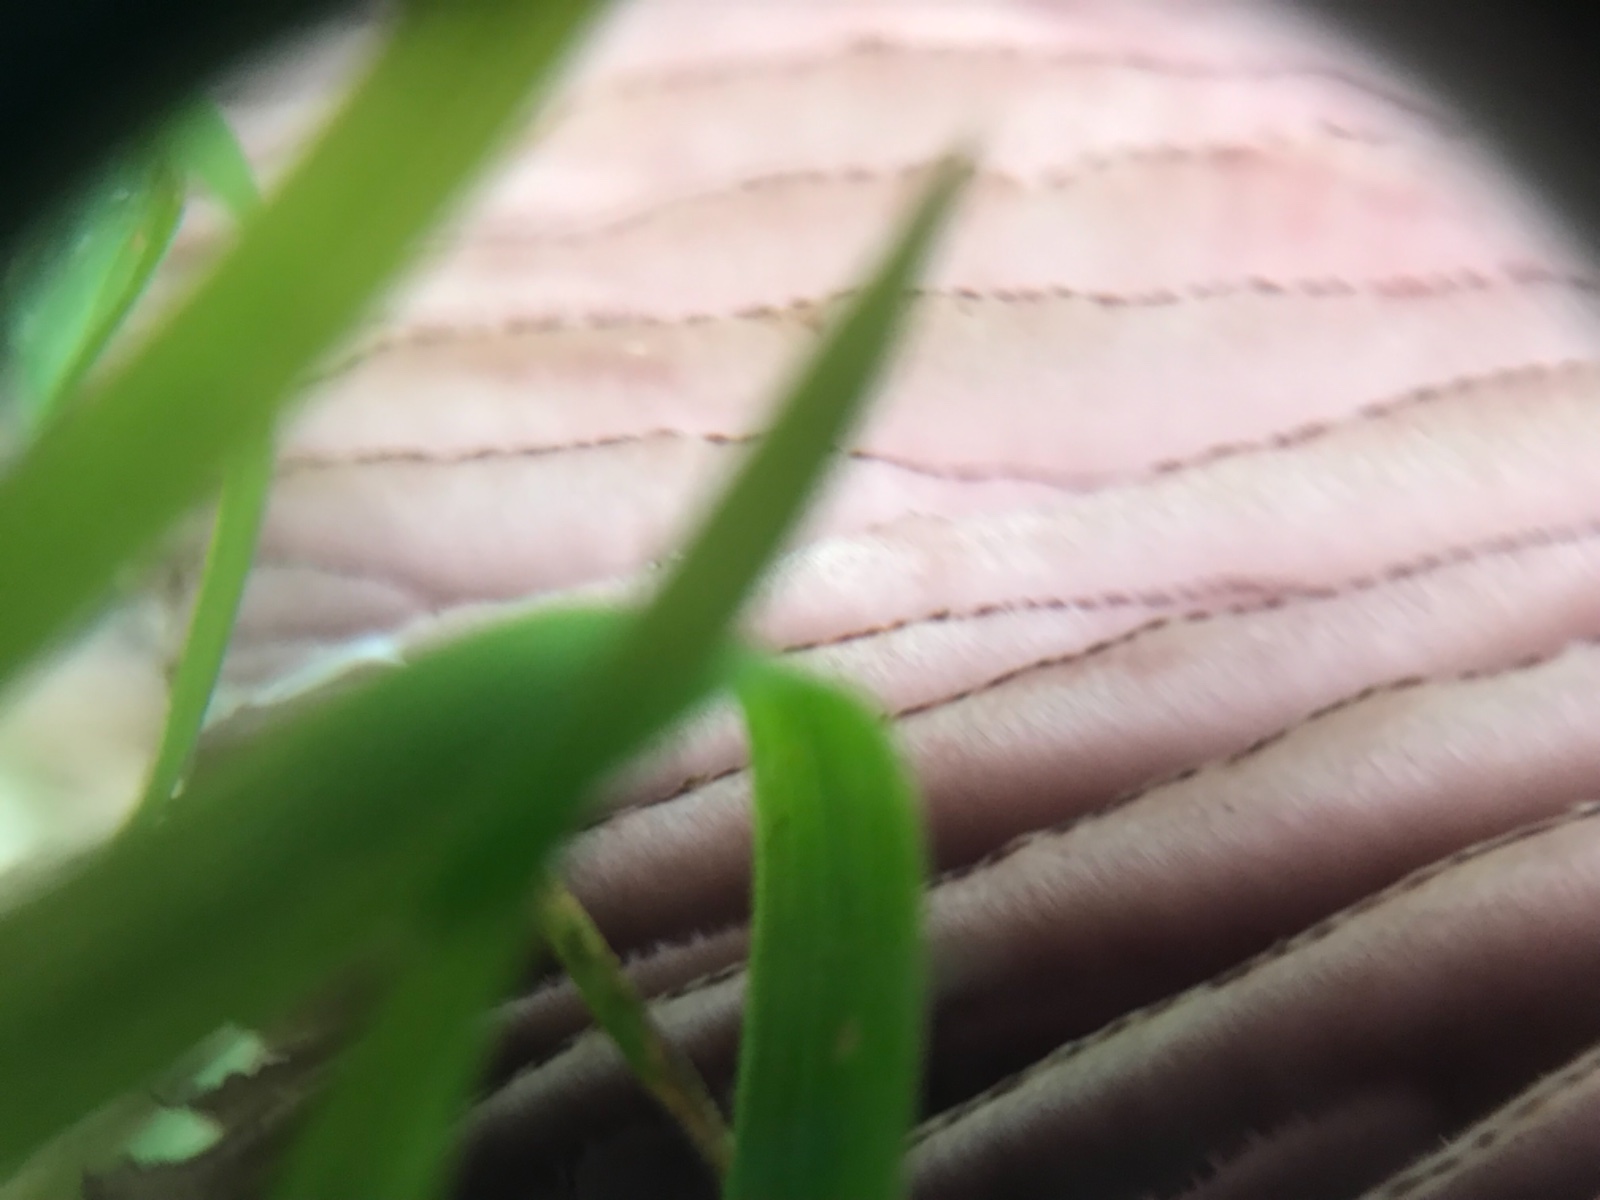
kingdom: Fungi
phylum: Basidiomycota
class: Agaricomycetes
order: Agaricales
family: Mycenaceae
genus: Mycena
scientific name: Mycena pelianthina
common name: mørkbladet huesvamp
